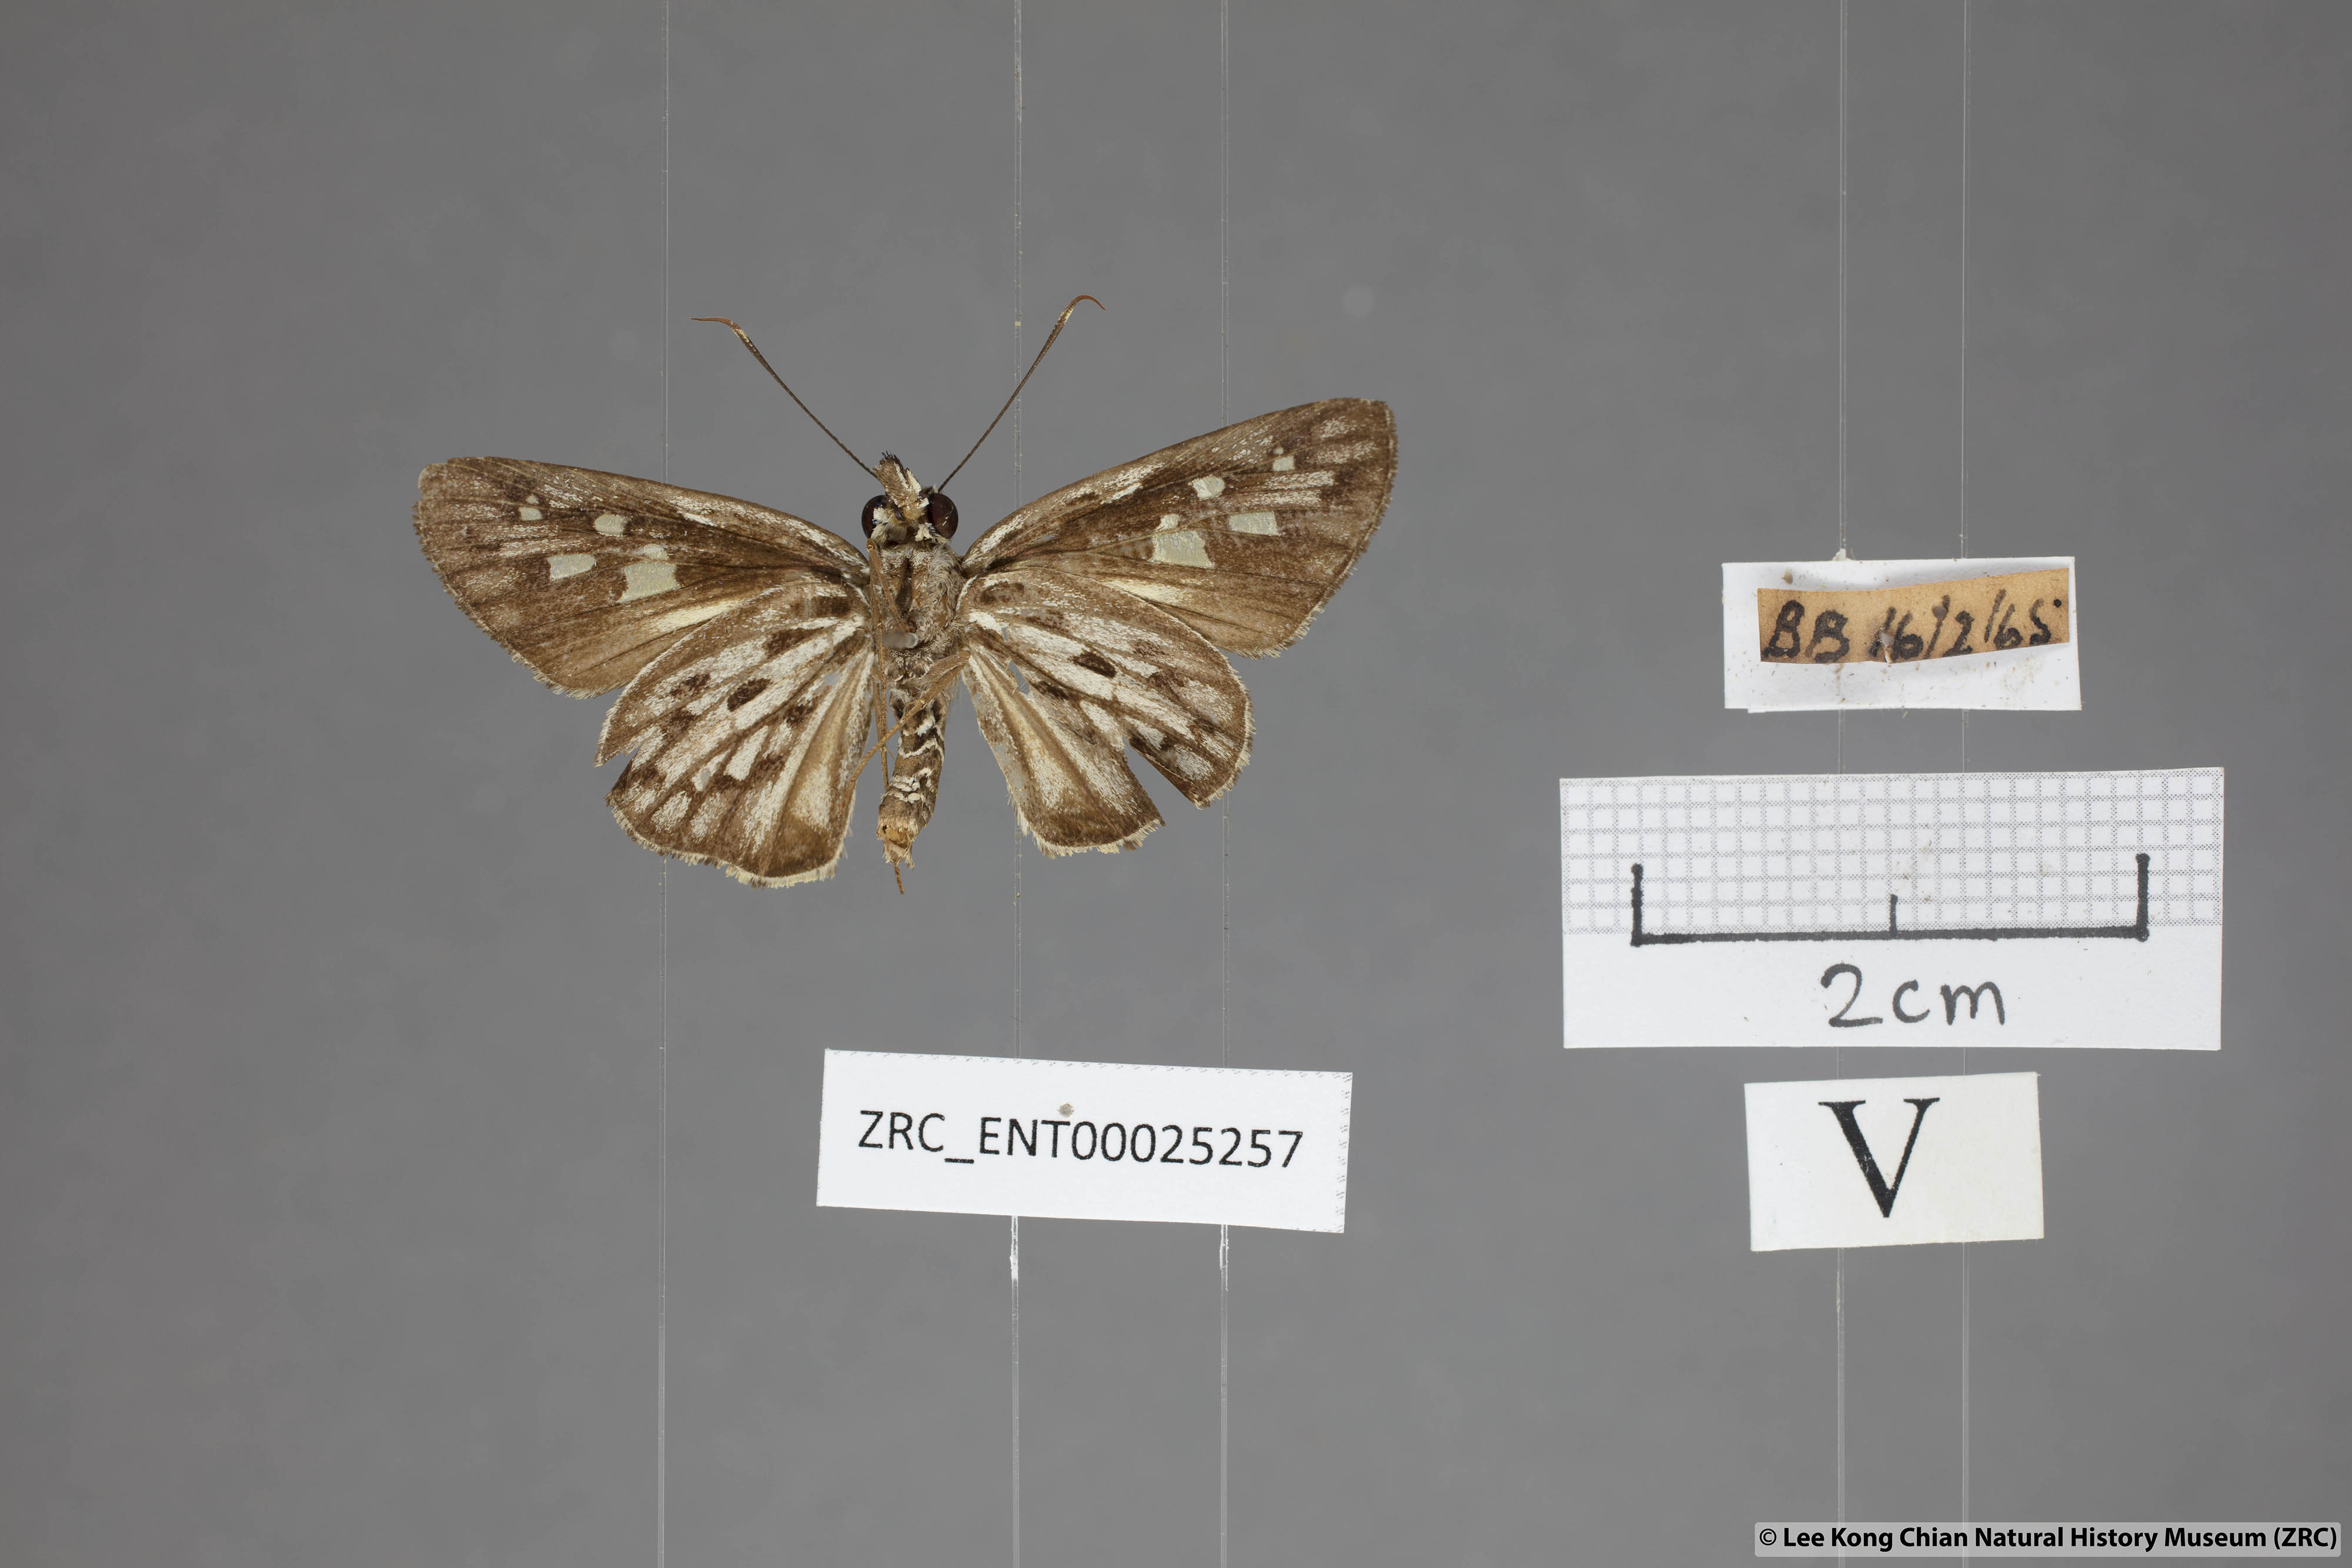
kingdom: Animalia
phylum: Arthropoda
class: Insecta
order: Lepidoptera
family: Hesperiidae
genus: Plastingia
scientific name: Plastingia naga
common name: Chequered lancer
